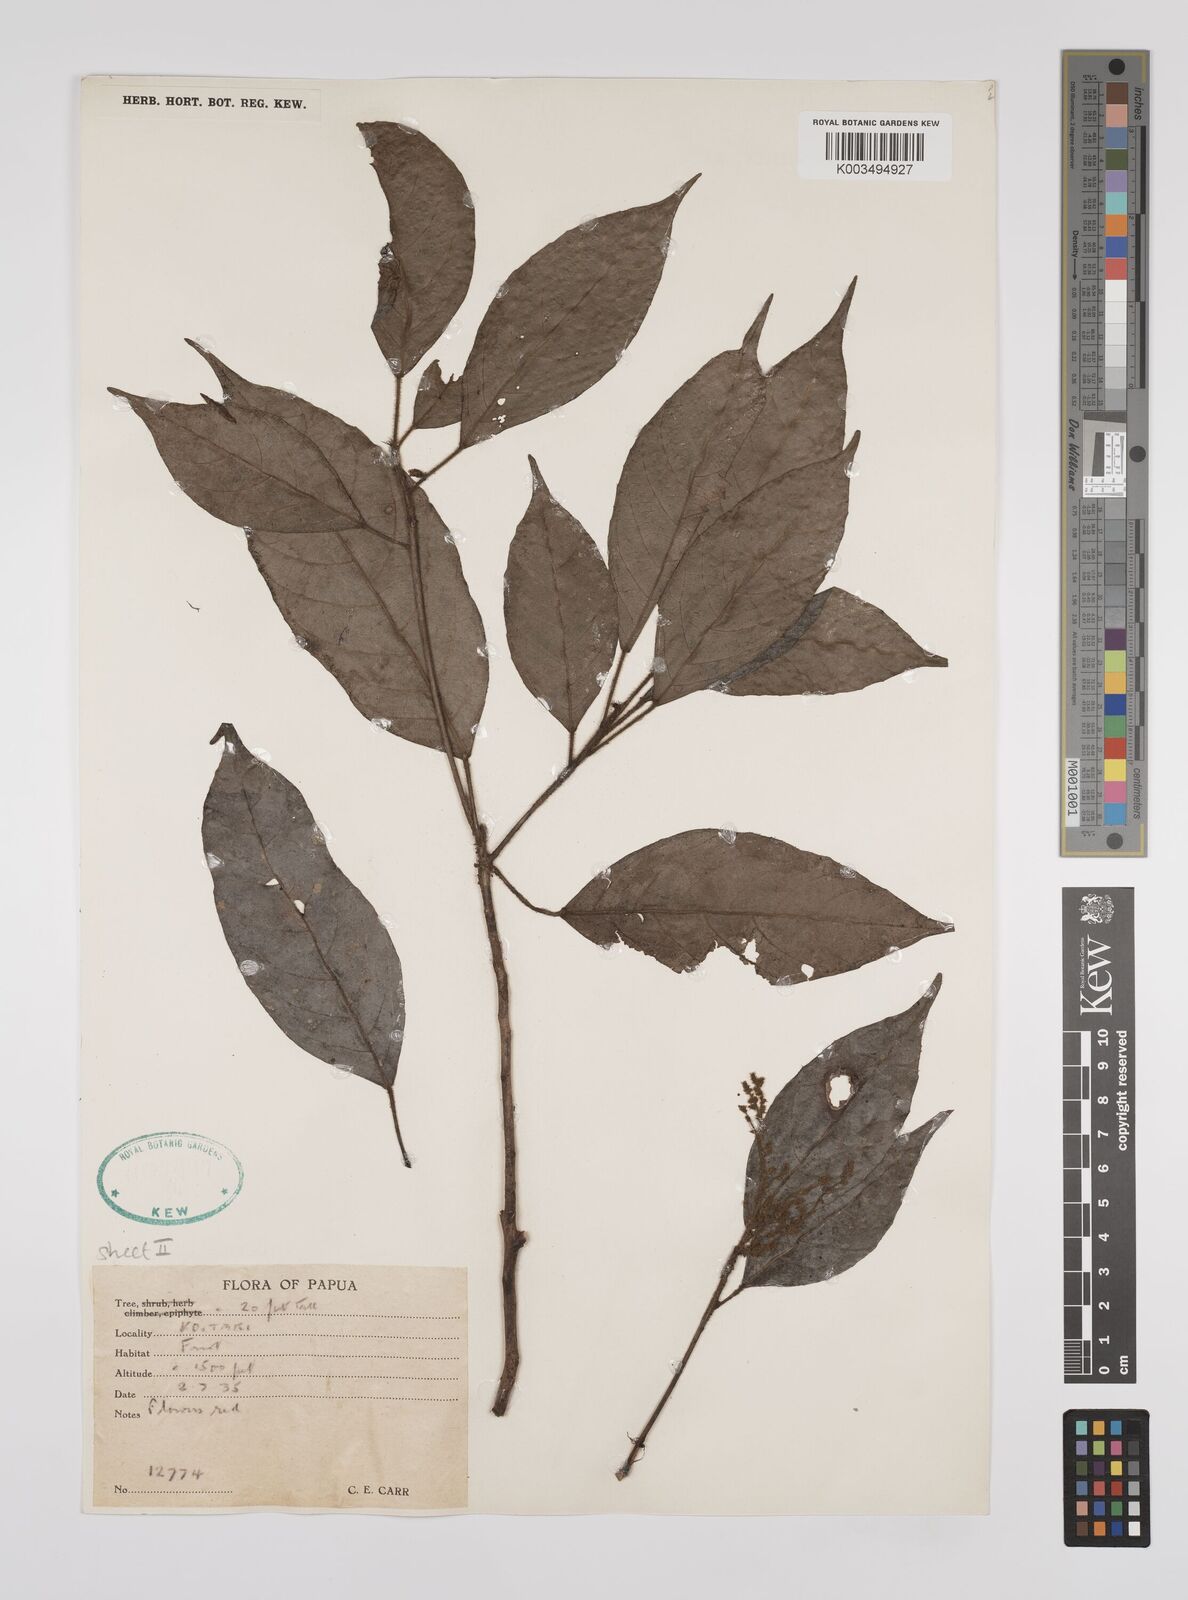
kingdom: Plantae
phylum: Tracheophyta
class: Magnoliopsida
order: Malpighiales
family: Euphorbiaceae
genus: Macaranga
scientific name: Macaranga glaberrima
